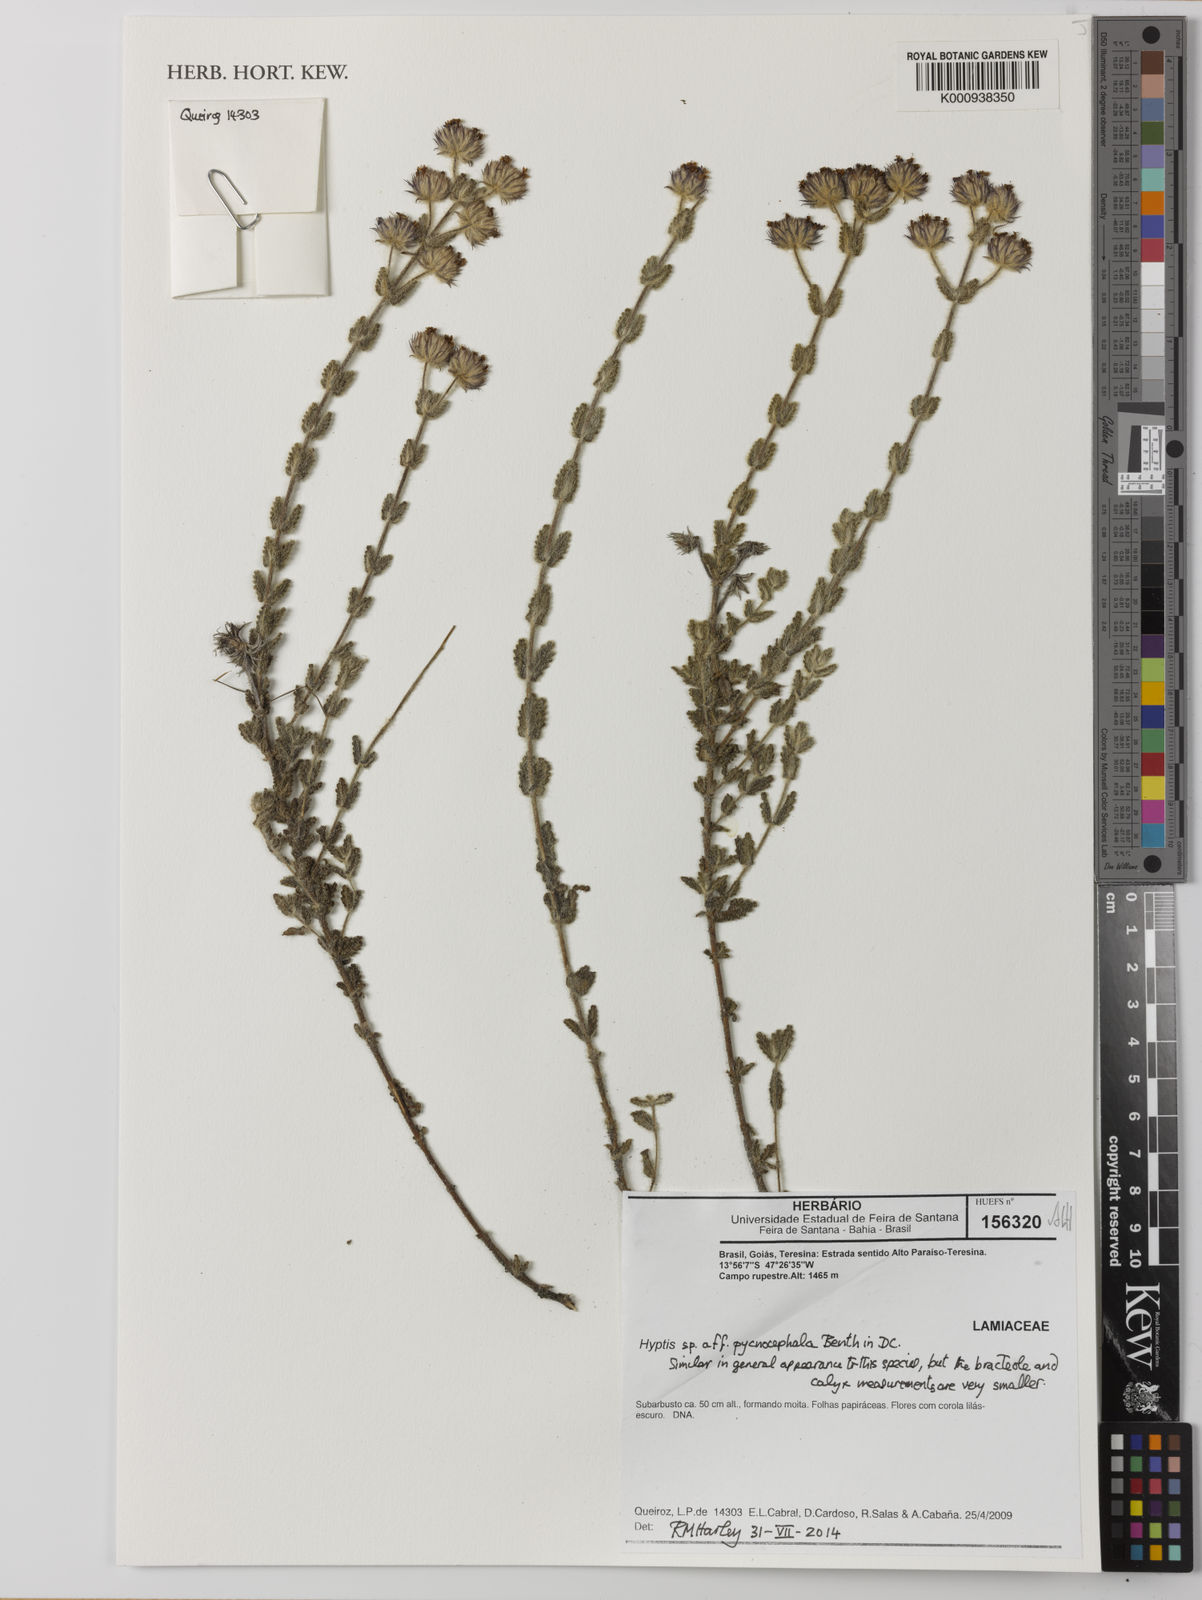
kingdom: Plantae
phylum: Tracheophyta
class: Magnoliopsida
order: Lamiales
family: Lamiaceae
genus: Hyptis
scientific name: Hyptis
